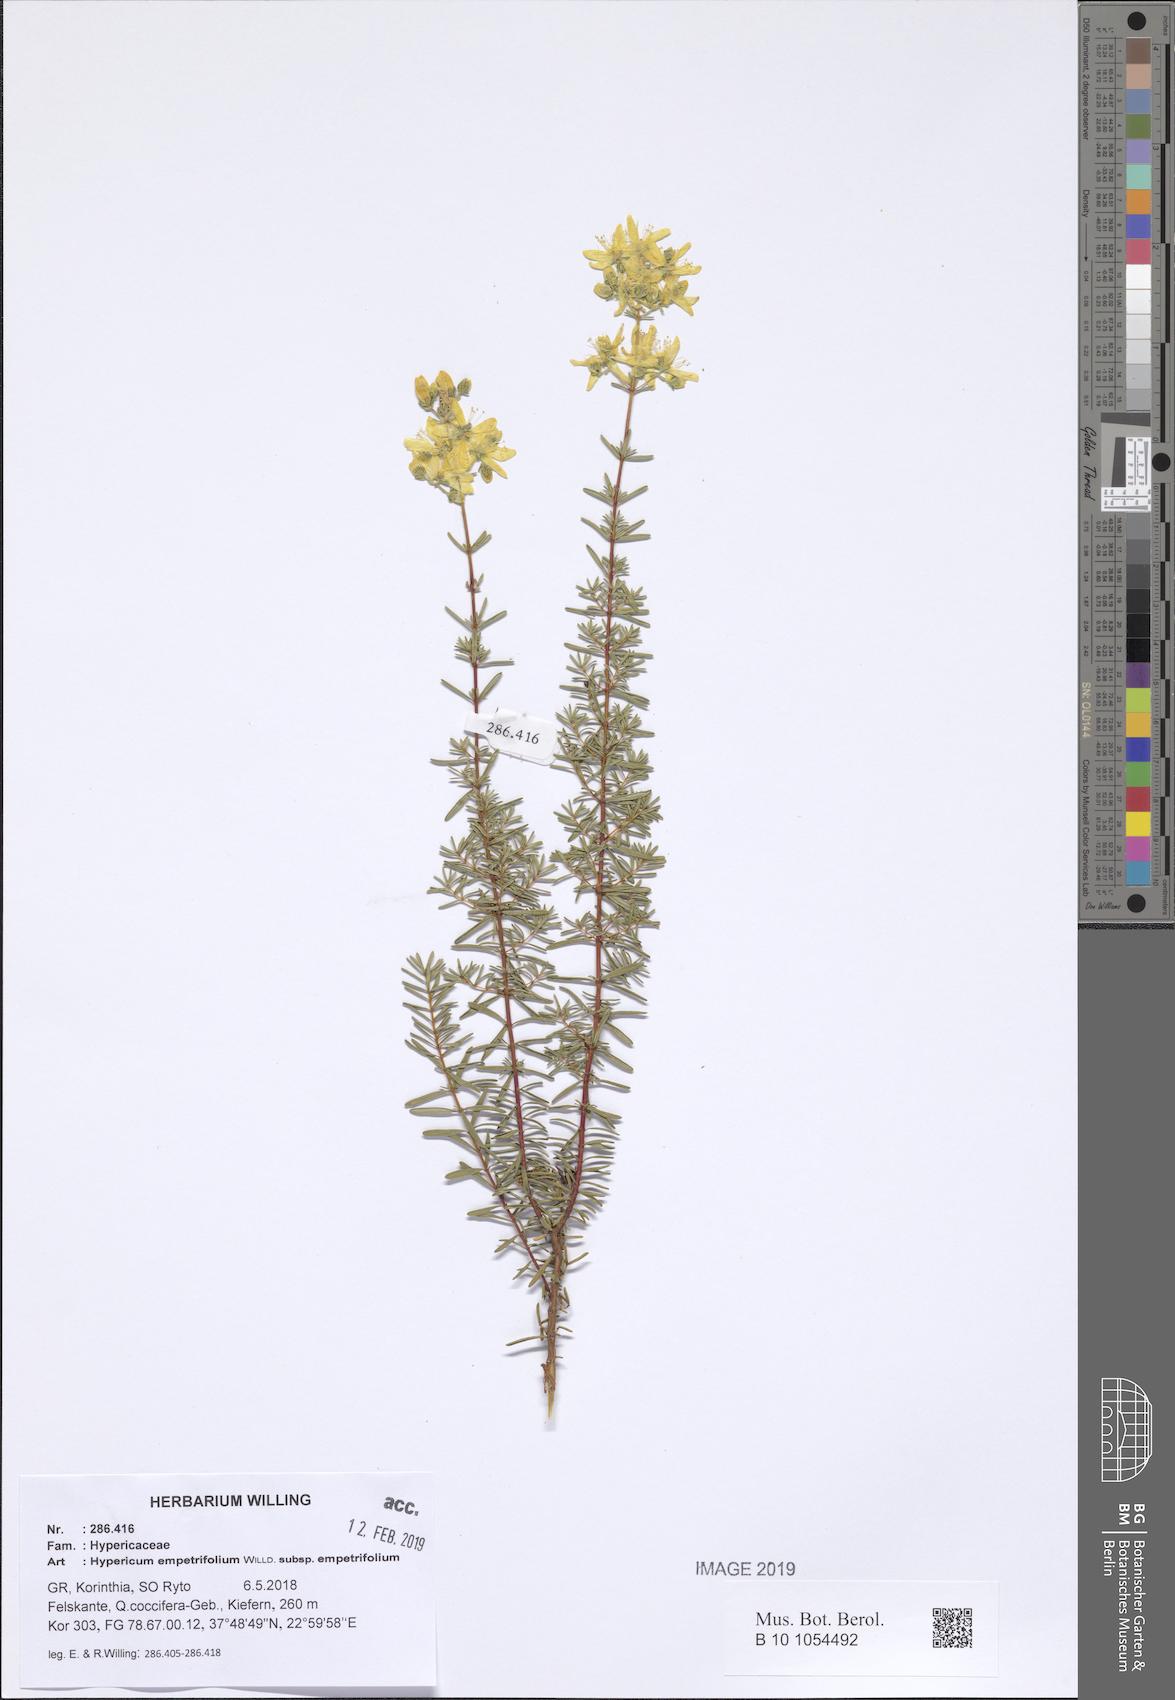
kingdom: Plantae
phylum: Tracheophyta
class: Magnoliopsida
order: Malpighiales
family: Hypericaceae
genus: Hypericum
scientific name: Hypericum empetrifolium
